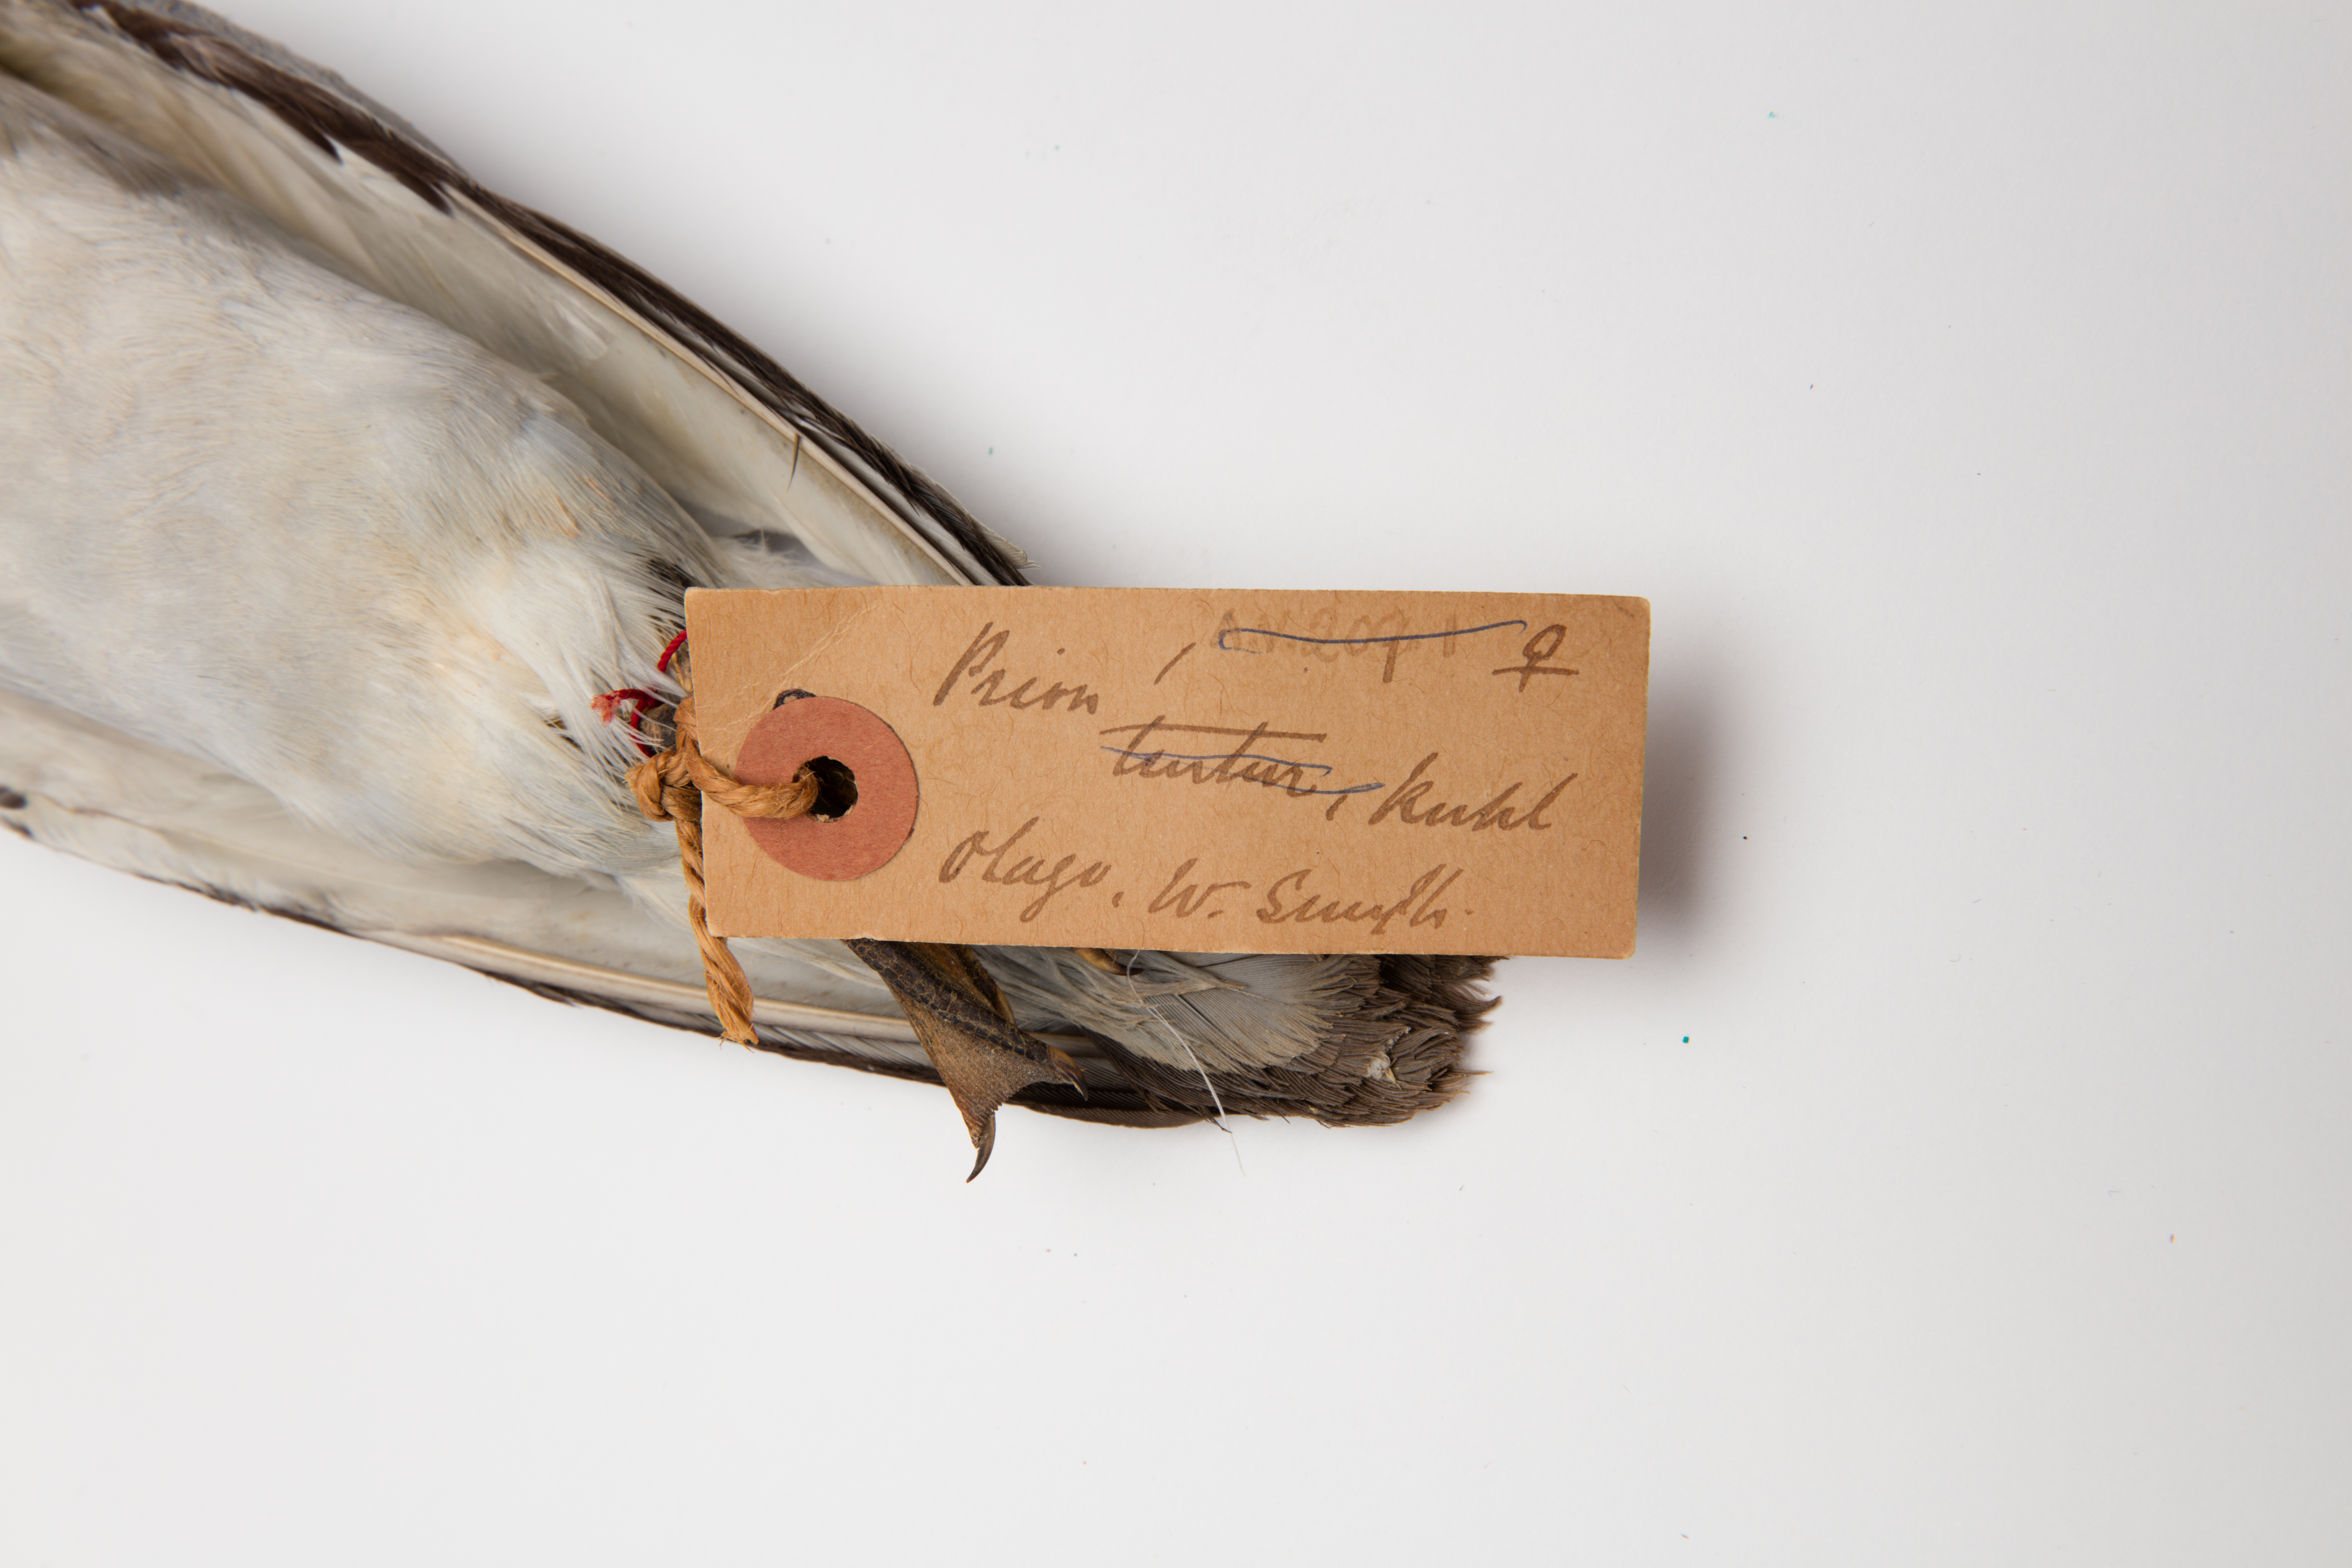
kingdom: Animalia
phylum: Chordata
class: Aves
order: Procellariiformes
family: Procellariidae
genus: Pachyptila
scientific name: Pachyptila crassirostris
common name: Fulmar prion
